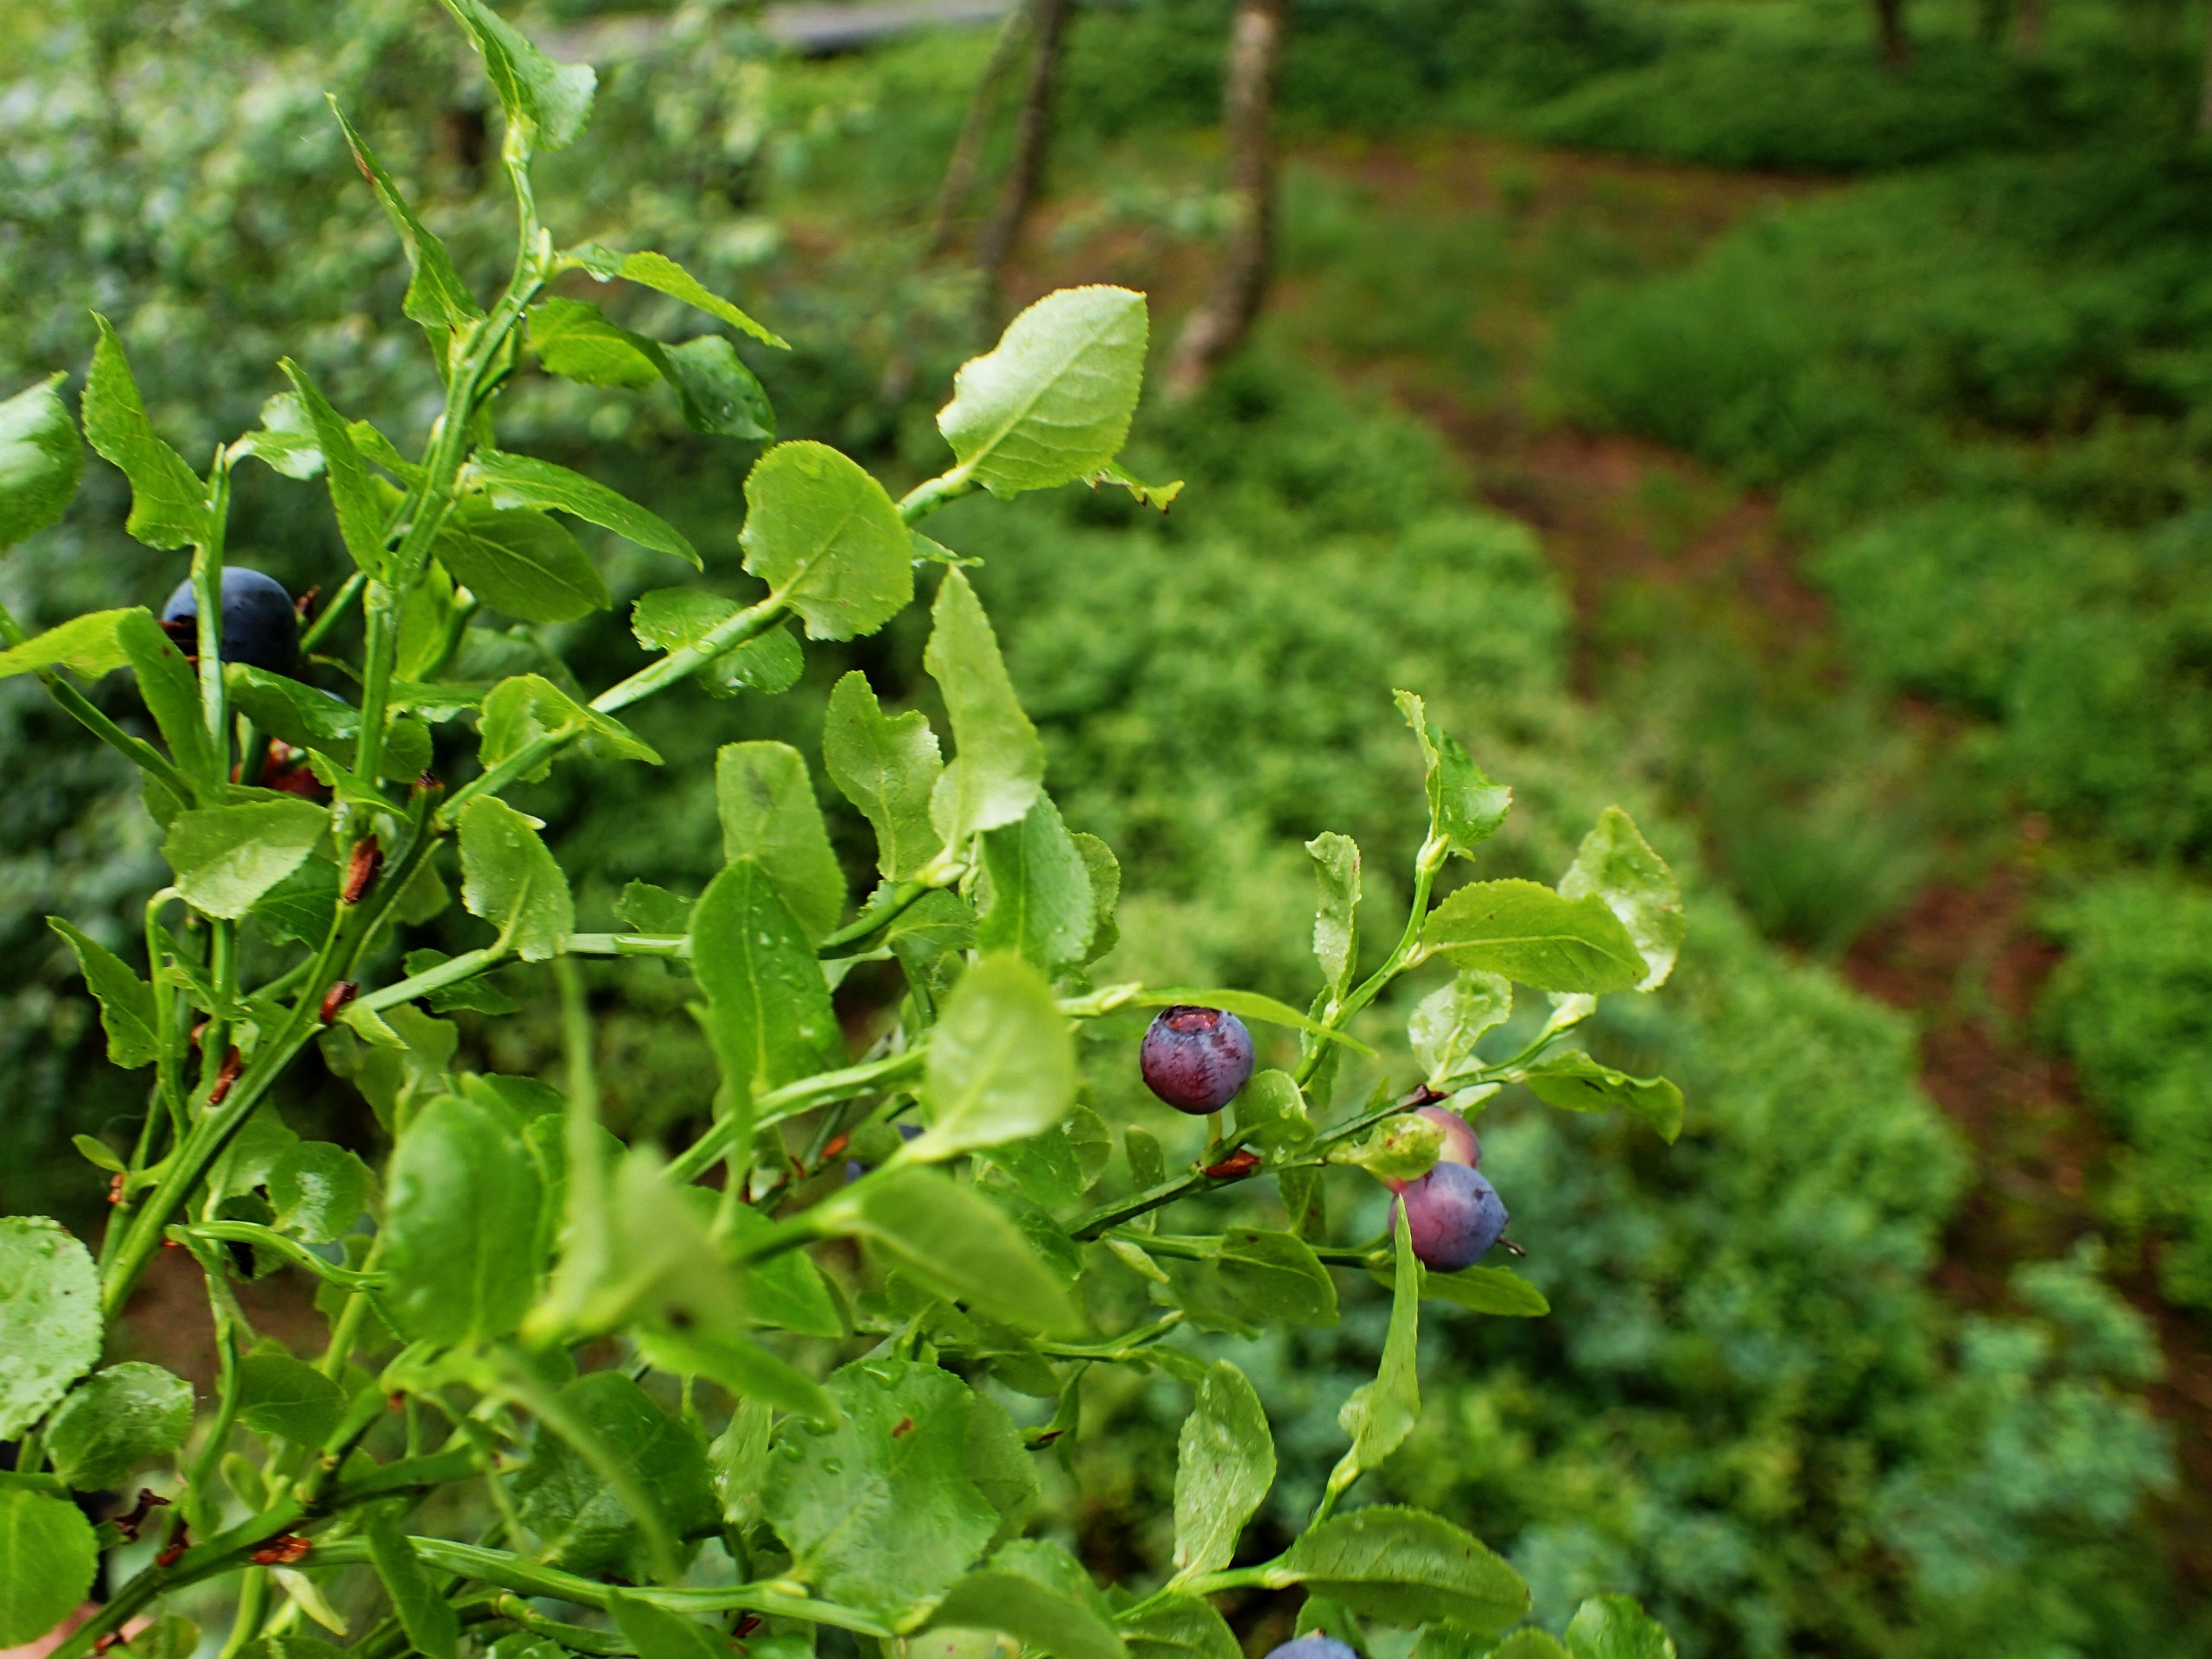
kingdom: Plantae
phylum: Tracheophyta
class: Magnoliopsida
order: Ericales
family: Ericaceae
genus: Vaccinium
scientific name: Vaccinium myrtillus
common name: Blåbær
